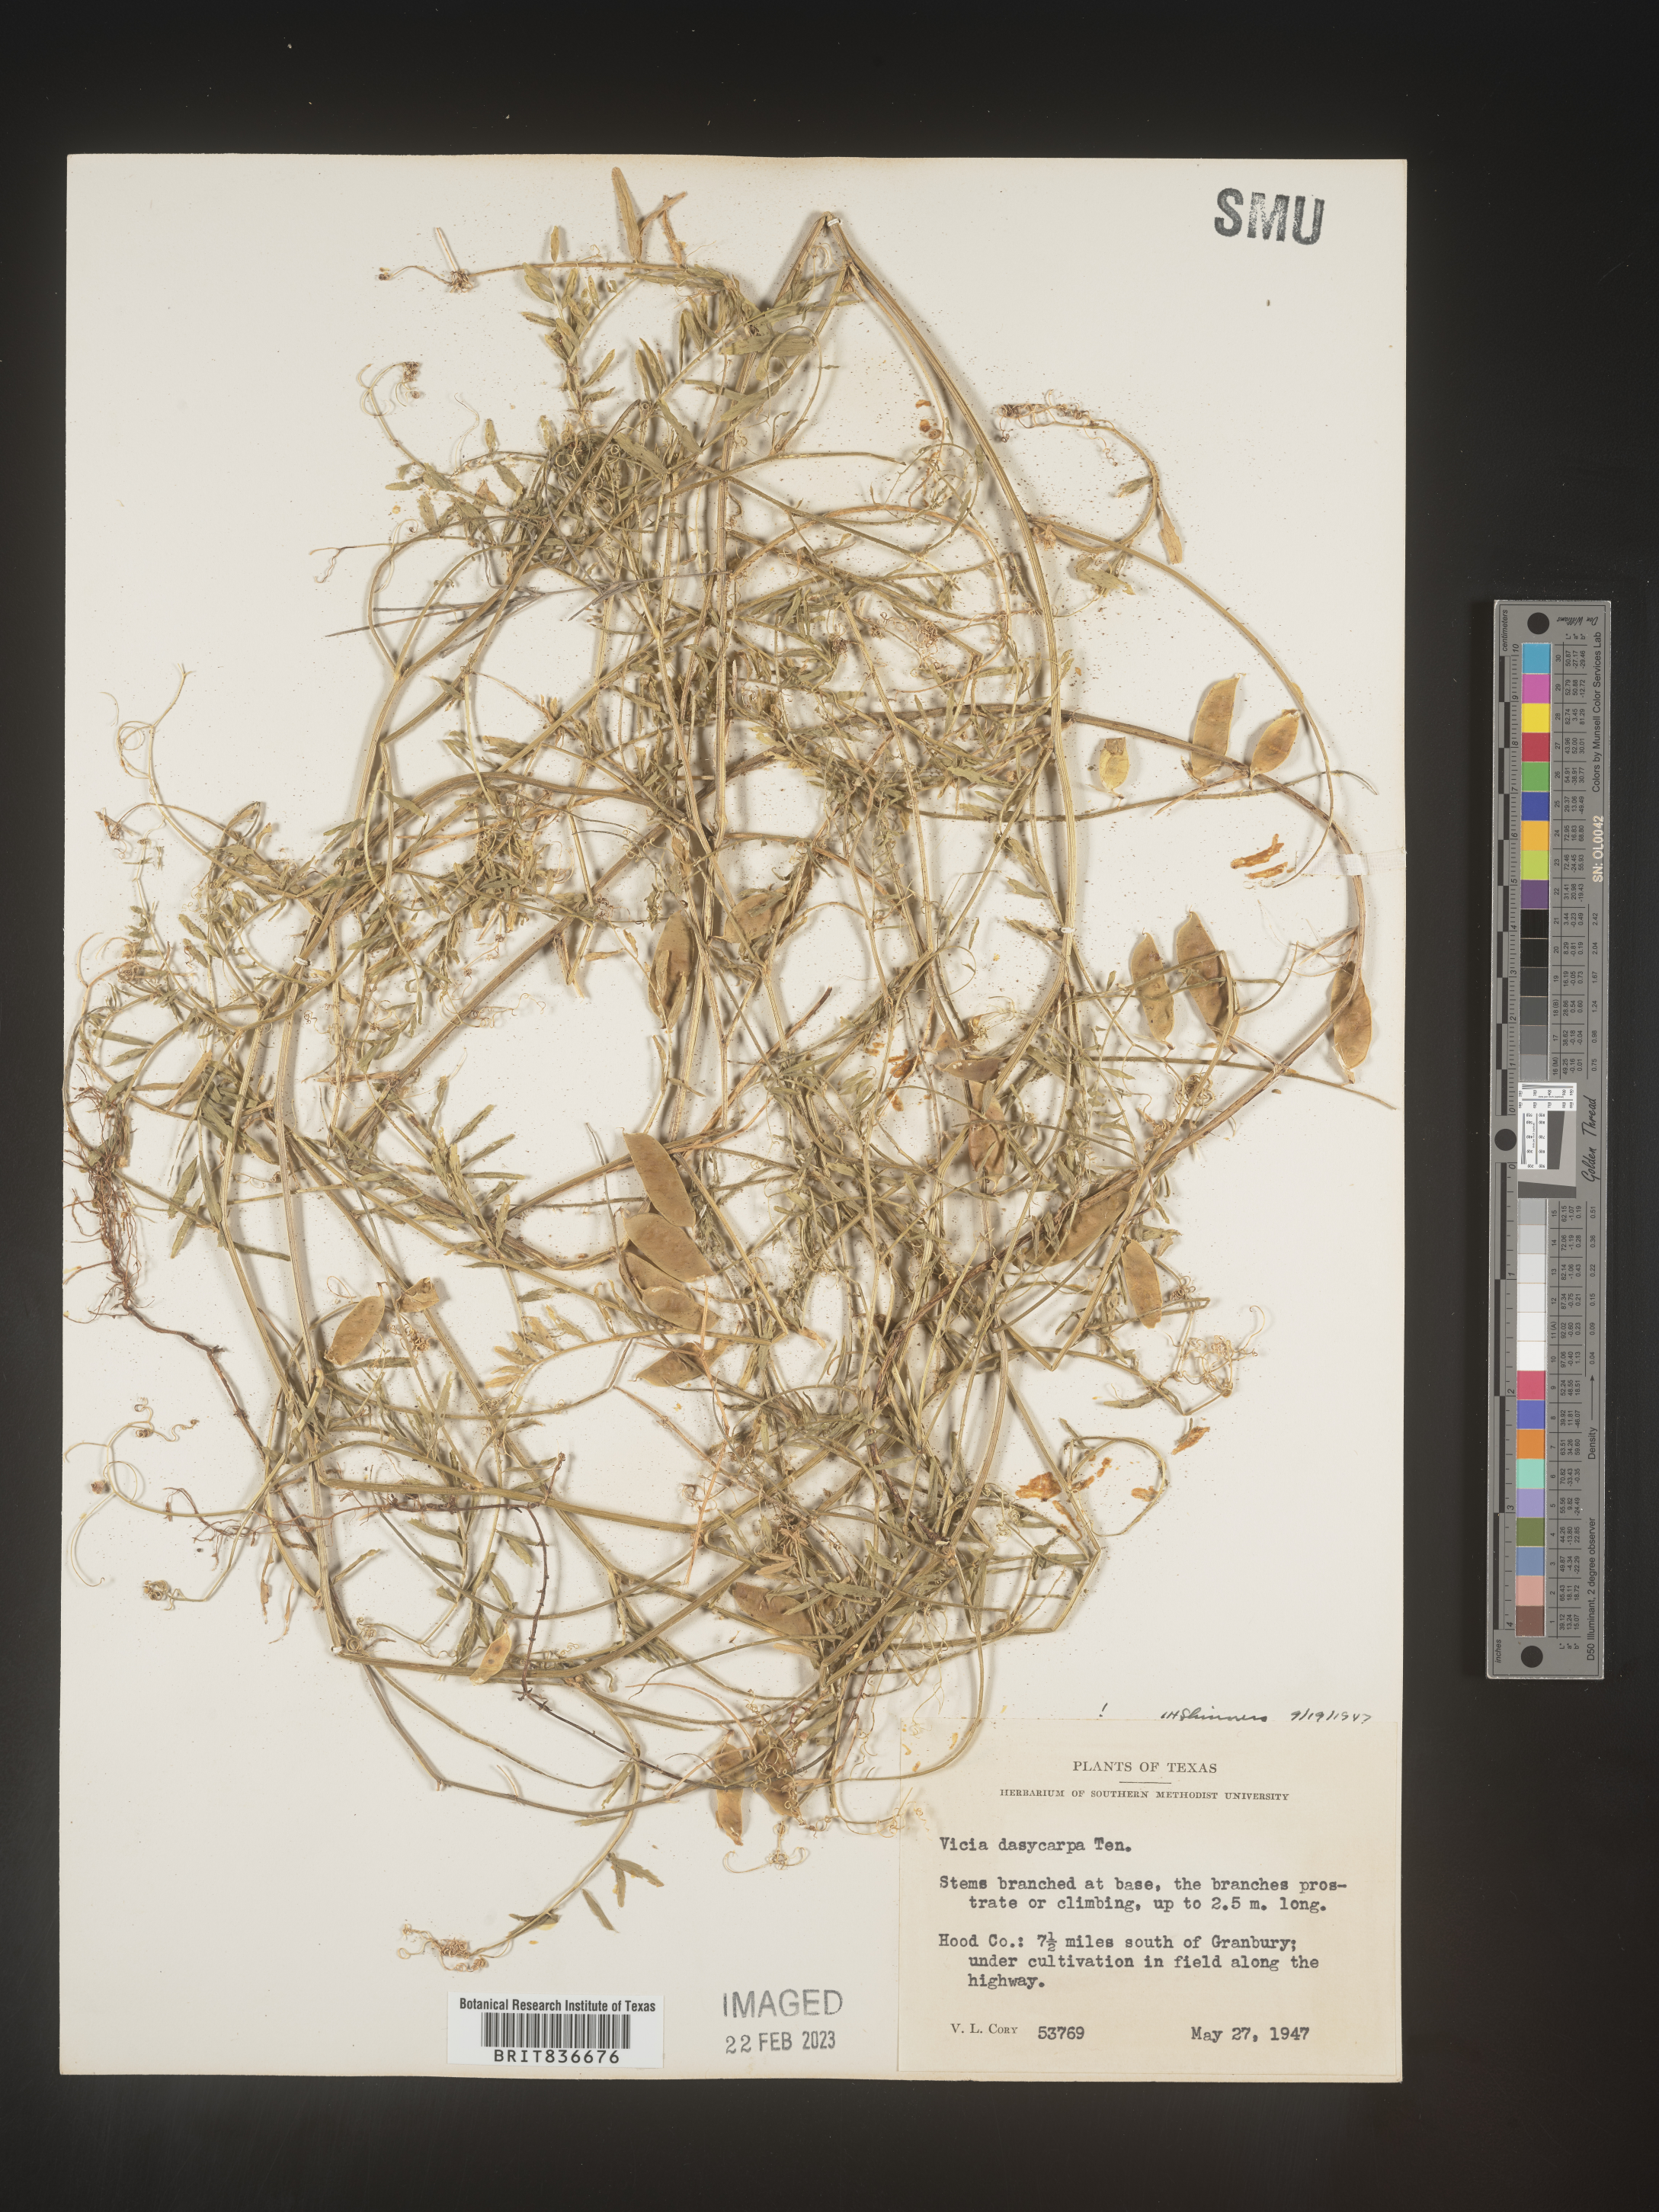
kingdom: Plantae
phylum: Tracheophyta
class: Magnoliopsida
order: Fabales
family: Fabaceae
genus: Vicia
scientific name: Vicia
